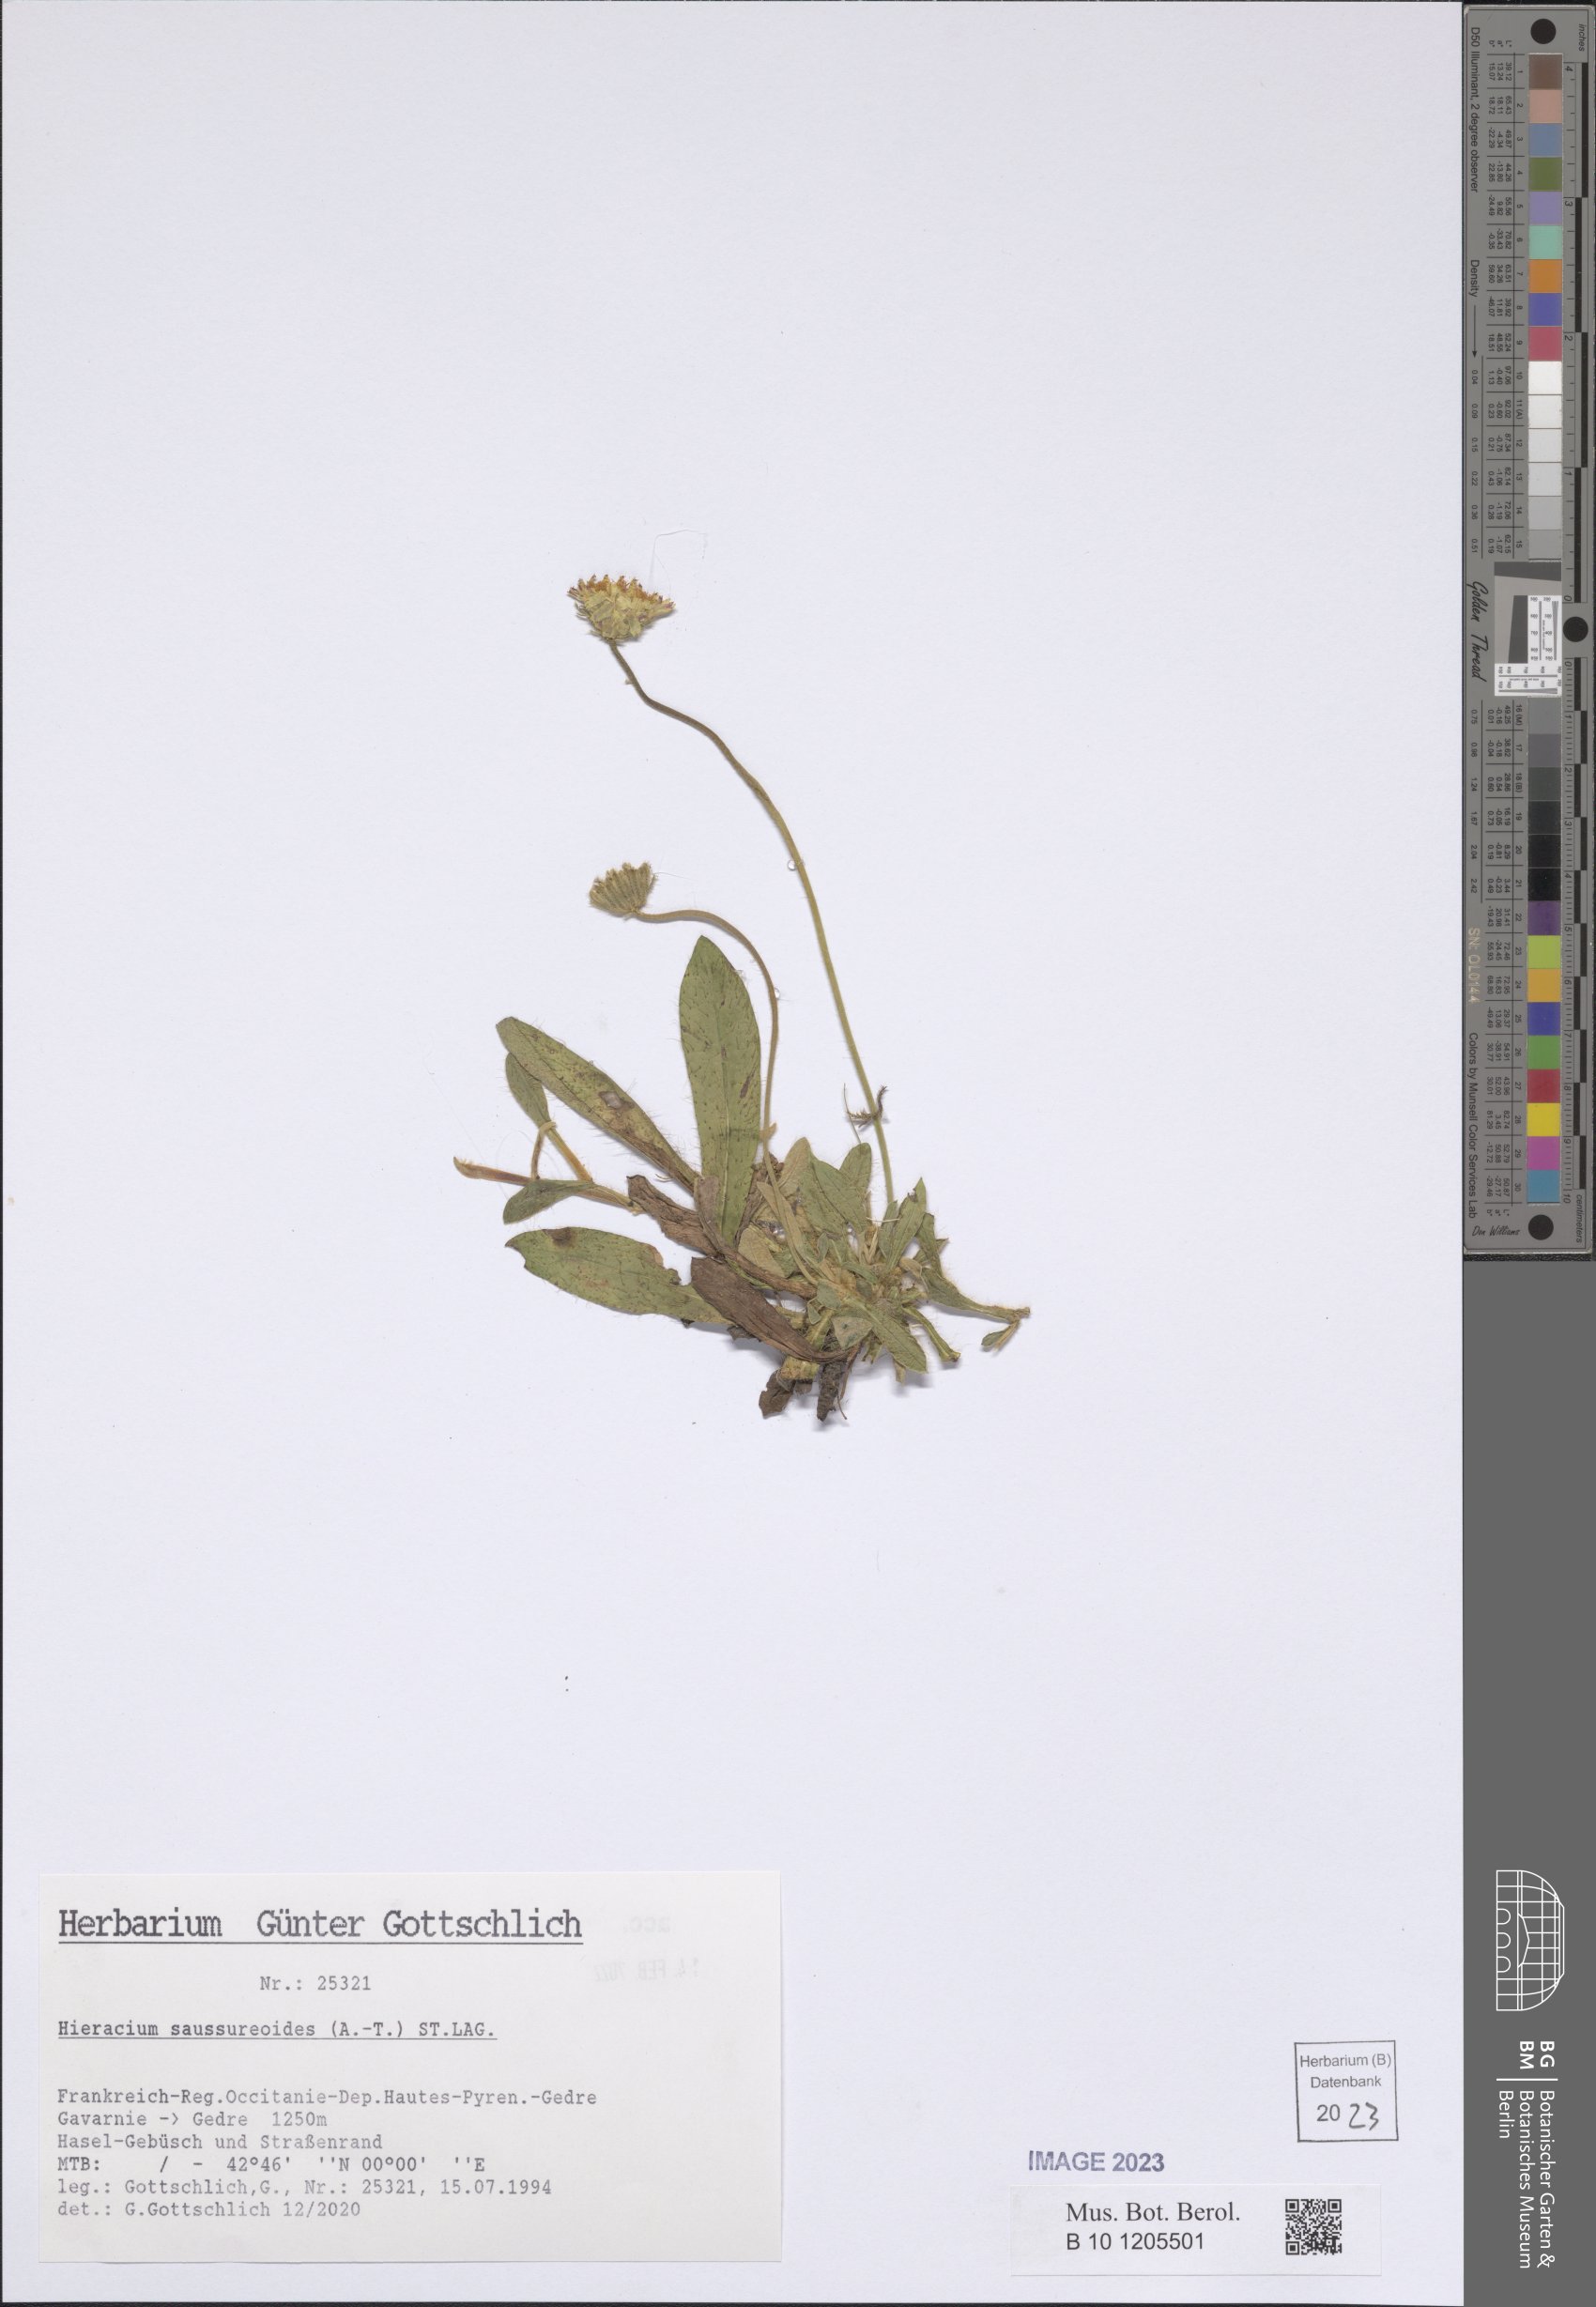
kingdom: Plantae
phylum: Tracheophyta
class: Magnoliopsida
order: Asterales
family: Asteraceae
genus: Pilosella
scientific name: Pilosella saussureoides
